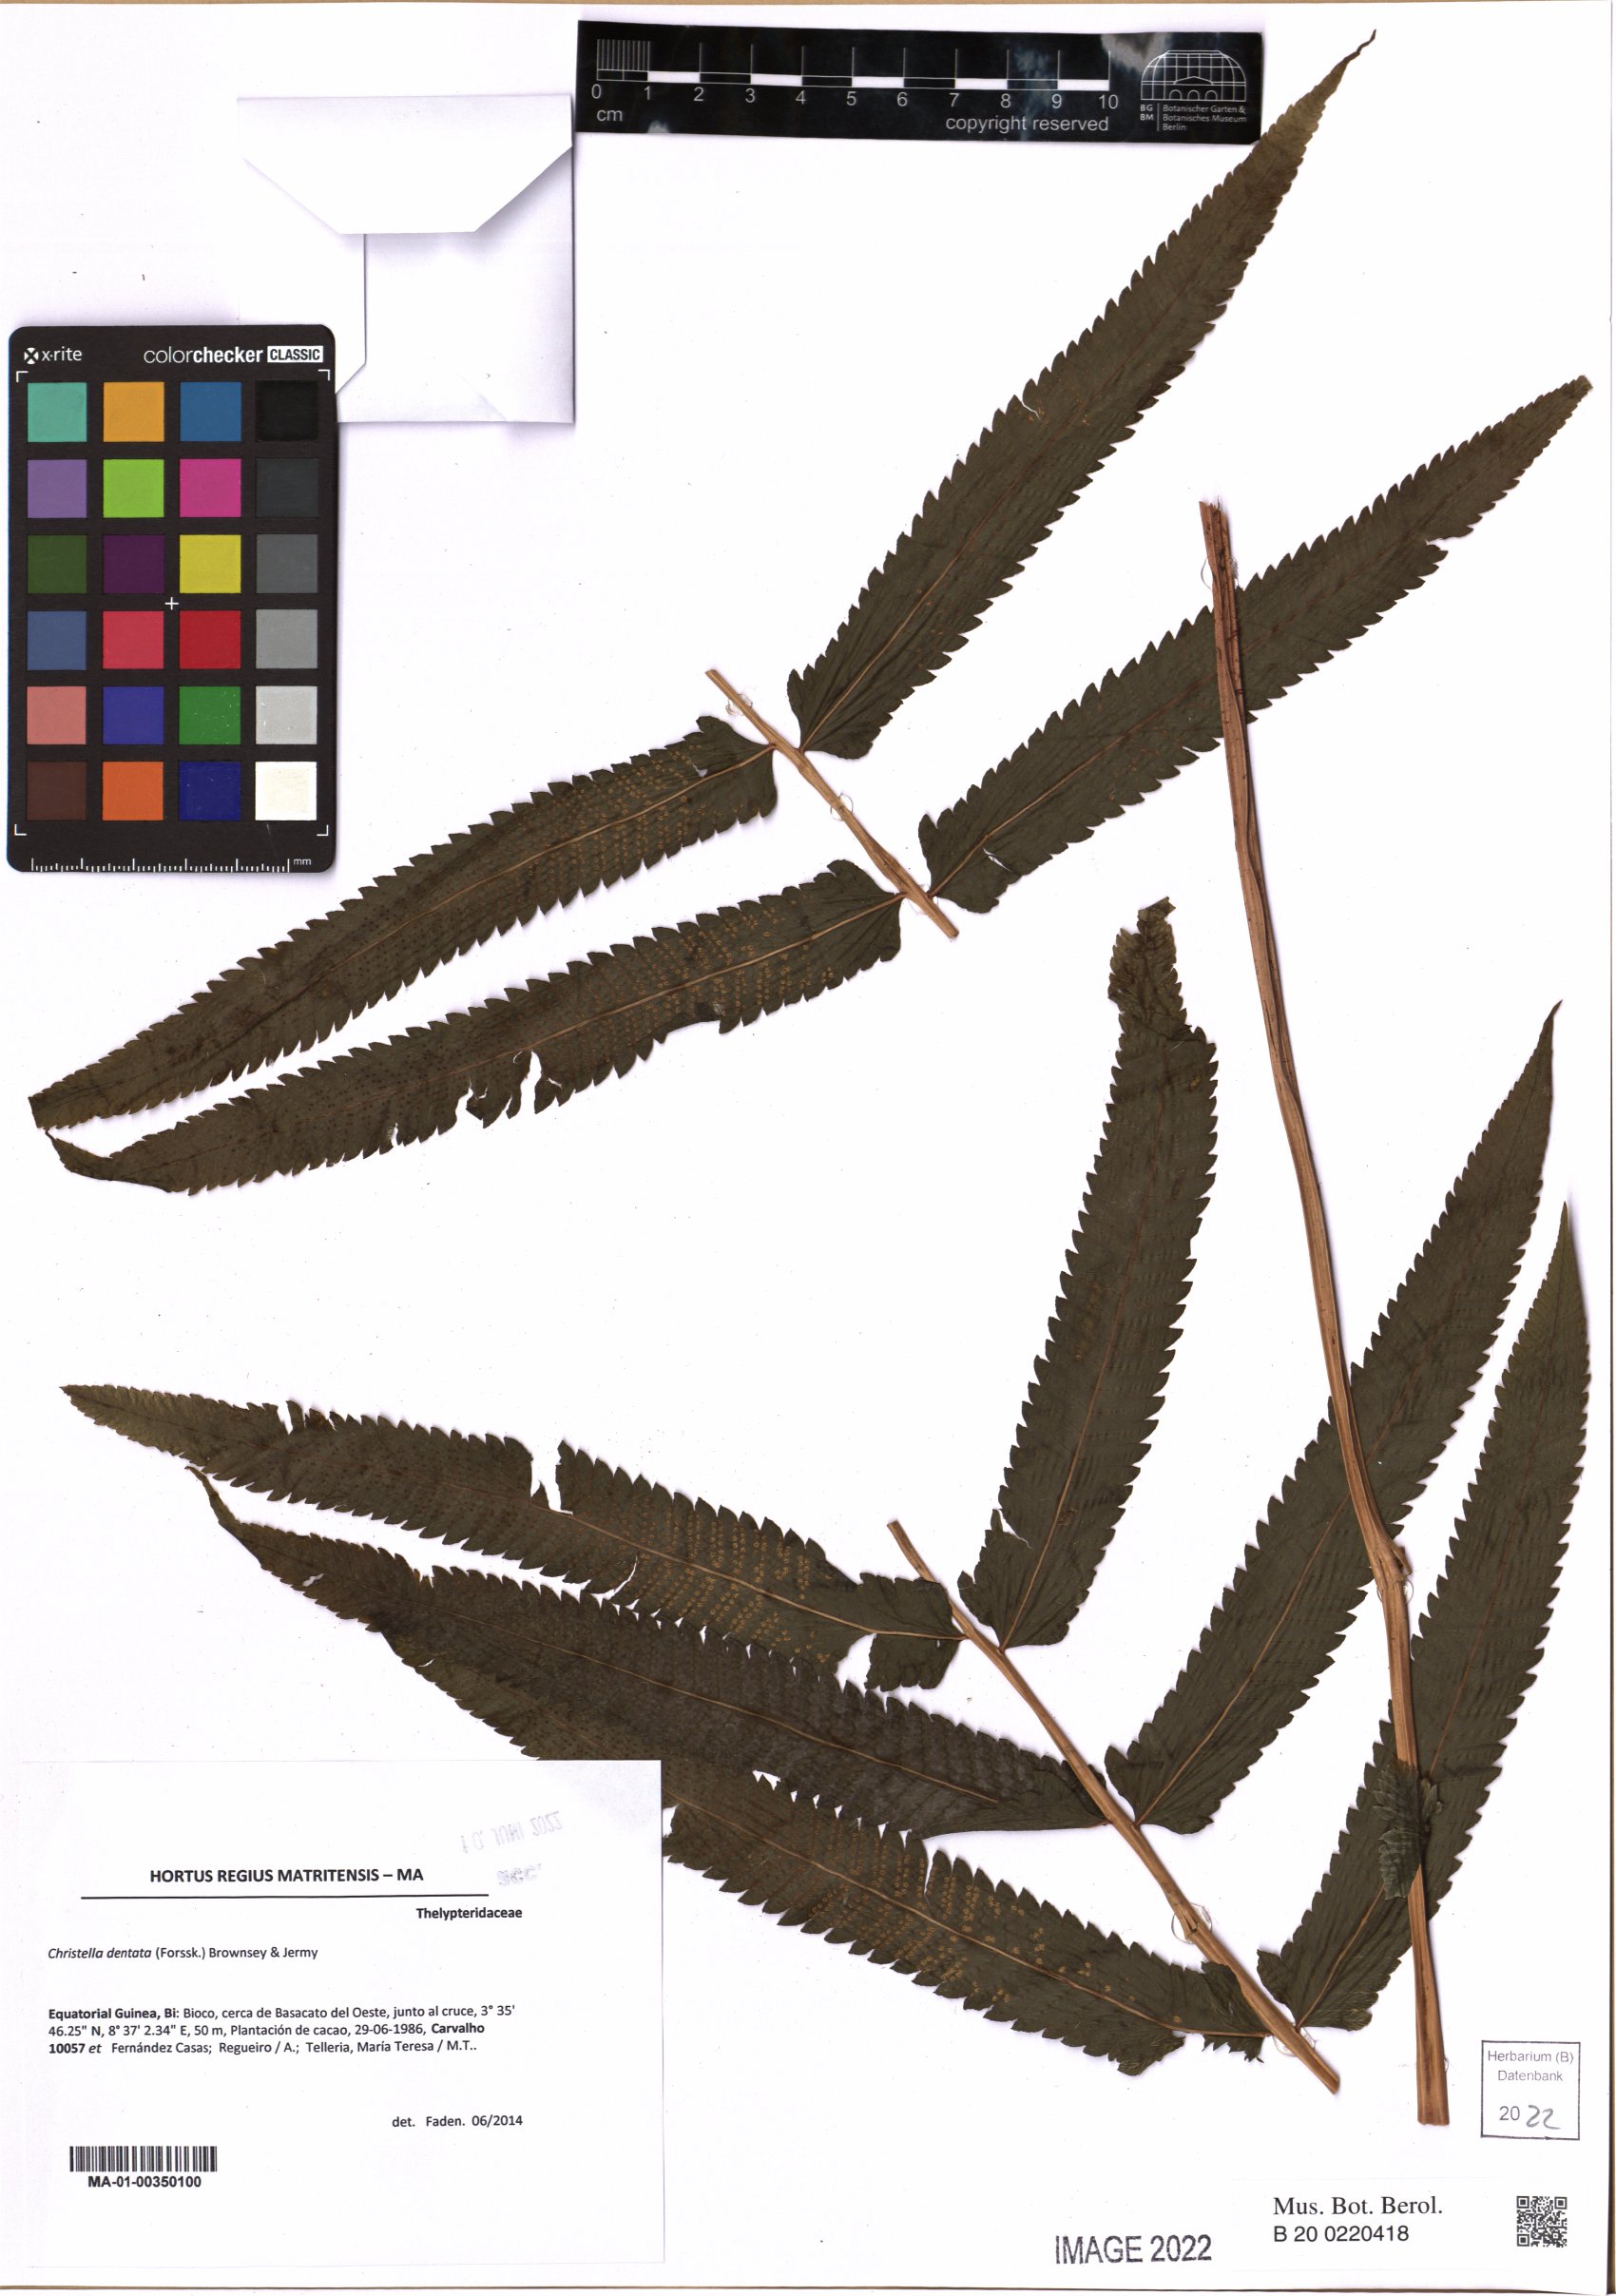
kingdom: Plantae
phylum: Tracheophyta
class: Polypodiopsida
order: Polypodiales
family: Thelypteridaceae
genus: Christella
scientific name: Christella dentata
